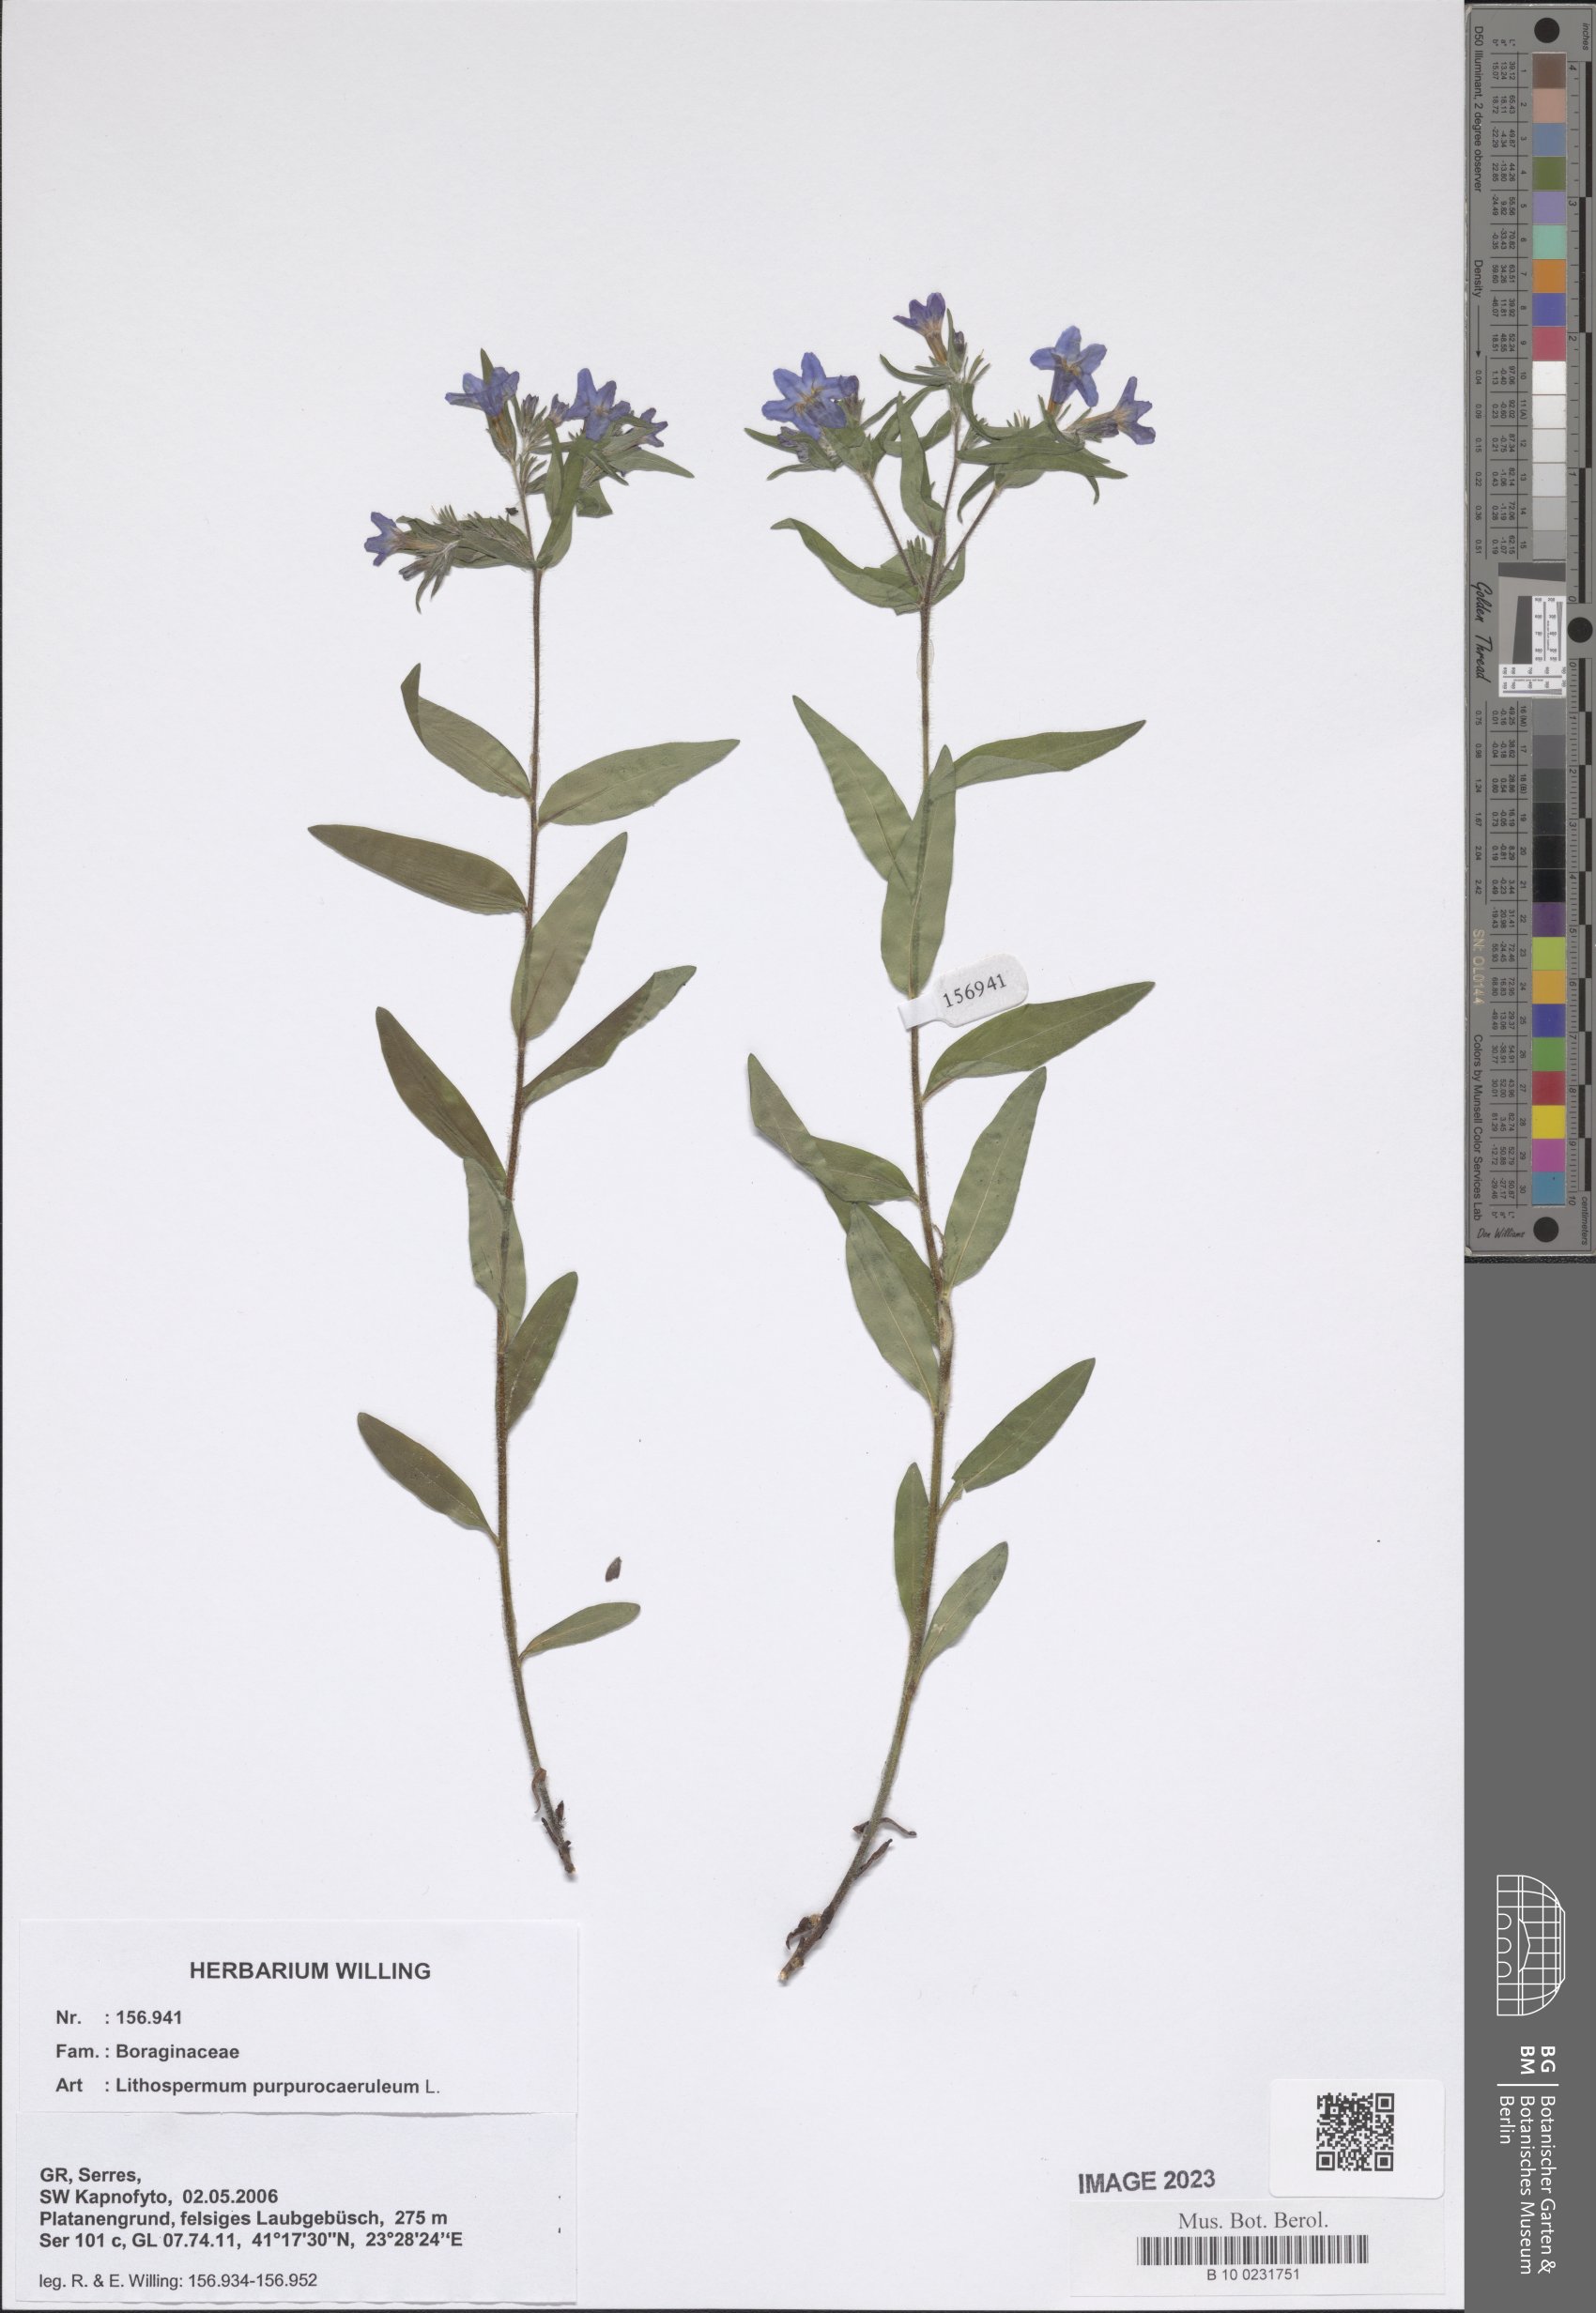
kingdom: Plantae
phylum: Tracheophyta
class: Magnoliopsida
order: Boraginales
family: Boraginaceae
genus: Aegonychon
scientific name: Aegonychon purpurocaeruleum
